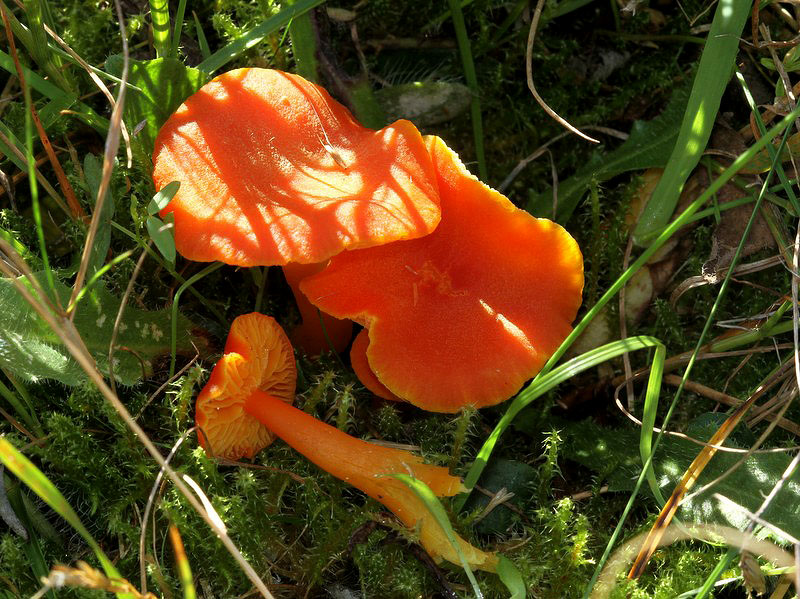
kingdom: Fungi
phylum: Basidiomycota
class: Agaricomycetes
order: Agaricales
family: Hygrophoraceae
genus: Hygrocybe
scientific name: Hygrocybe miniata
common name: mønje-vokshat
